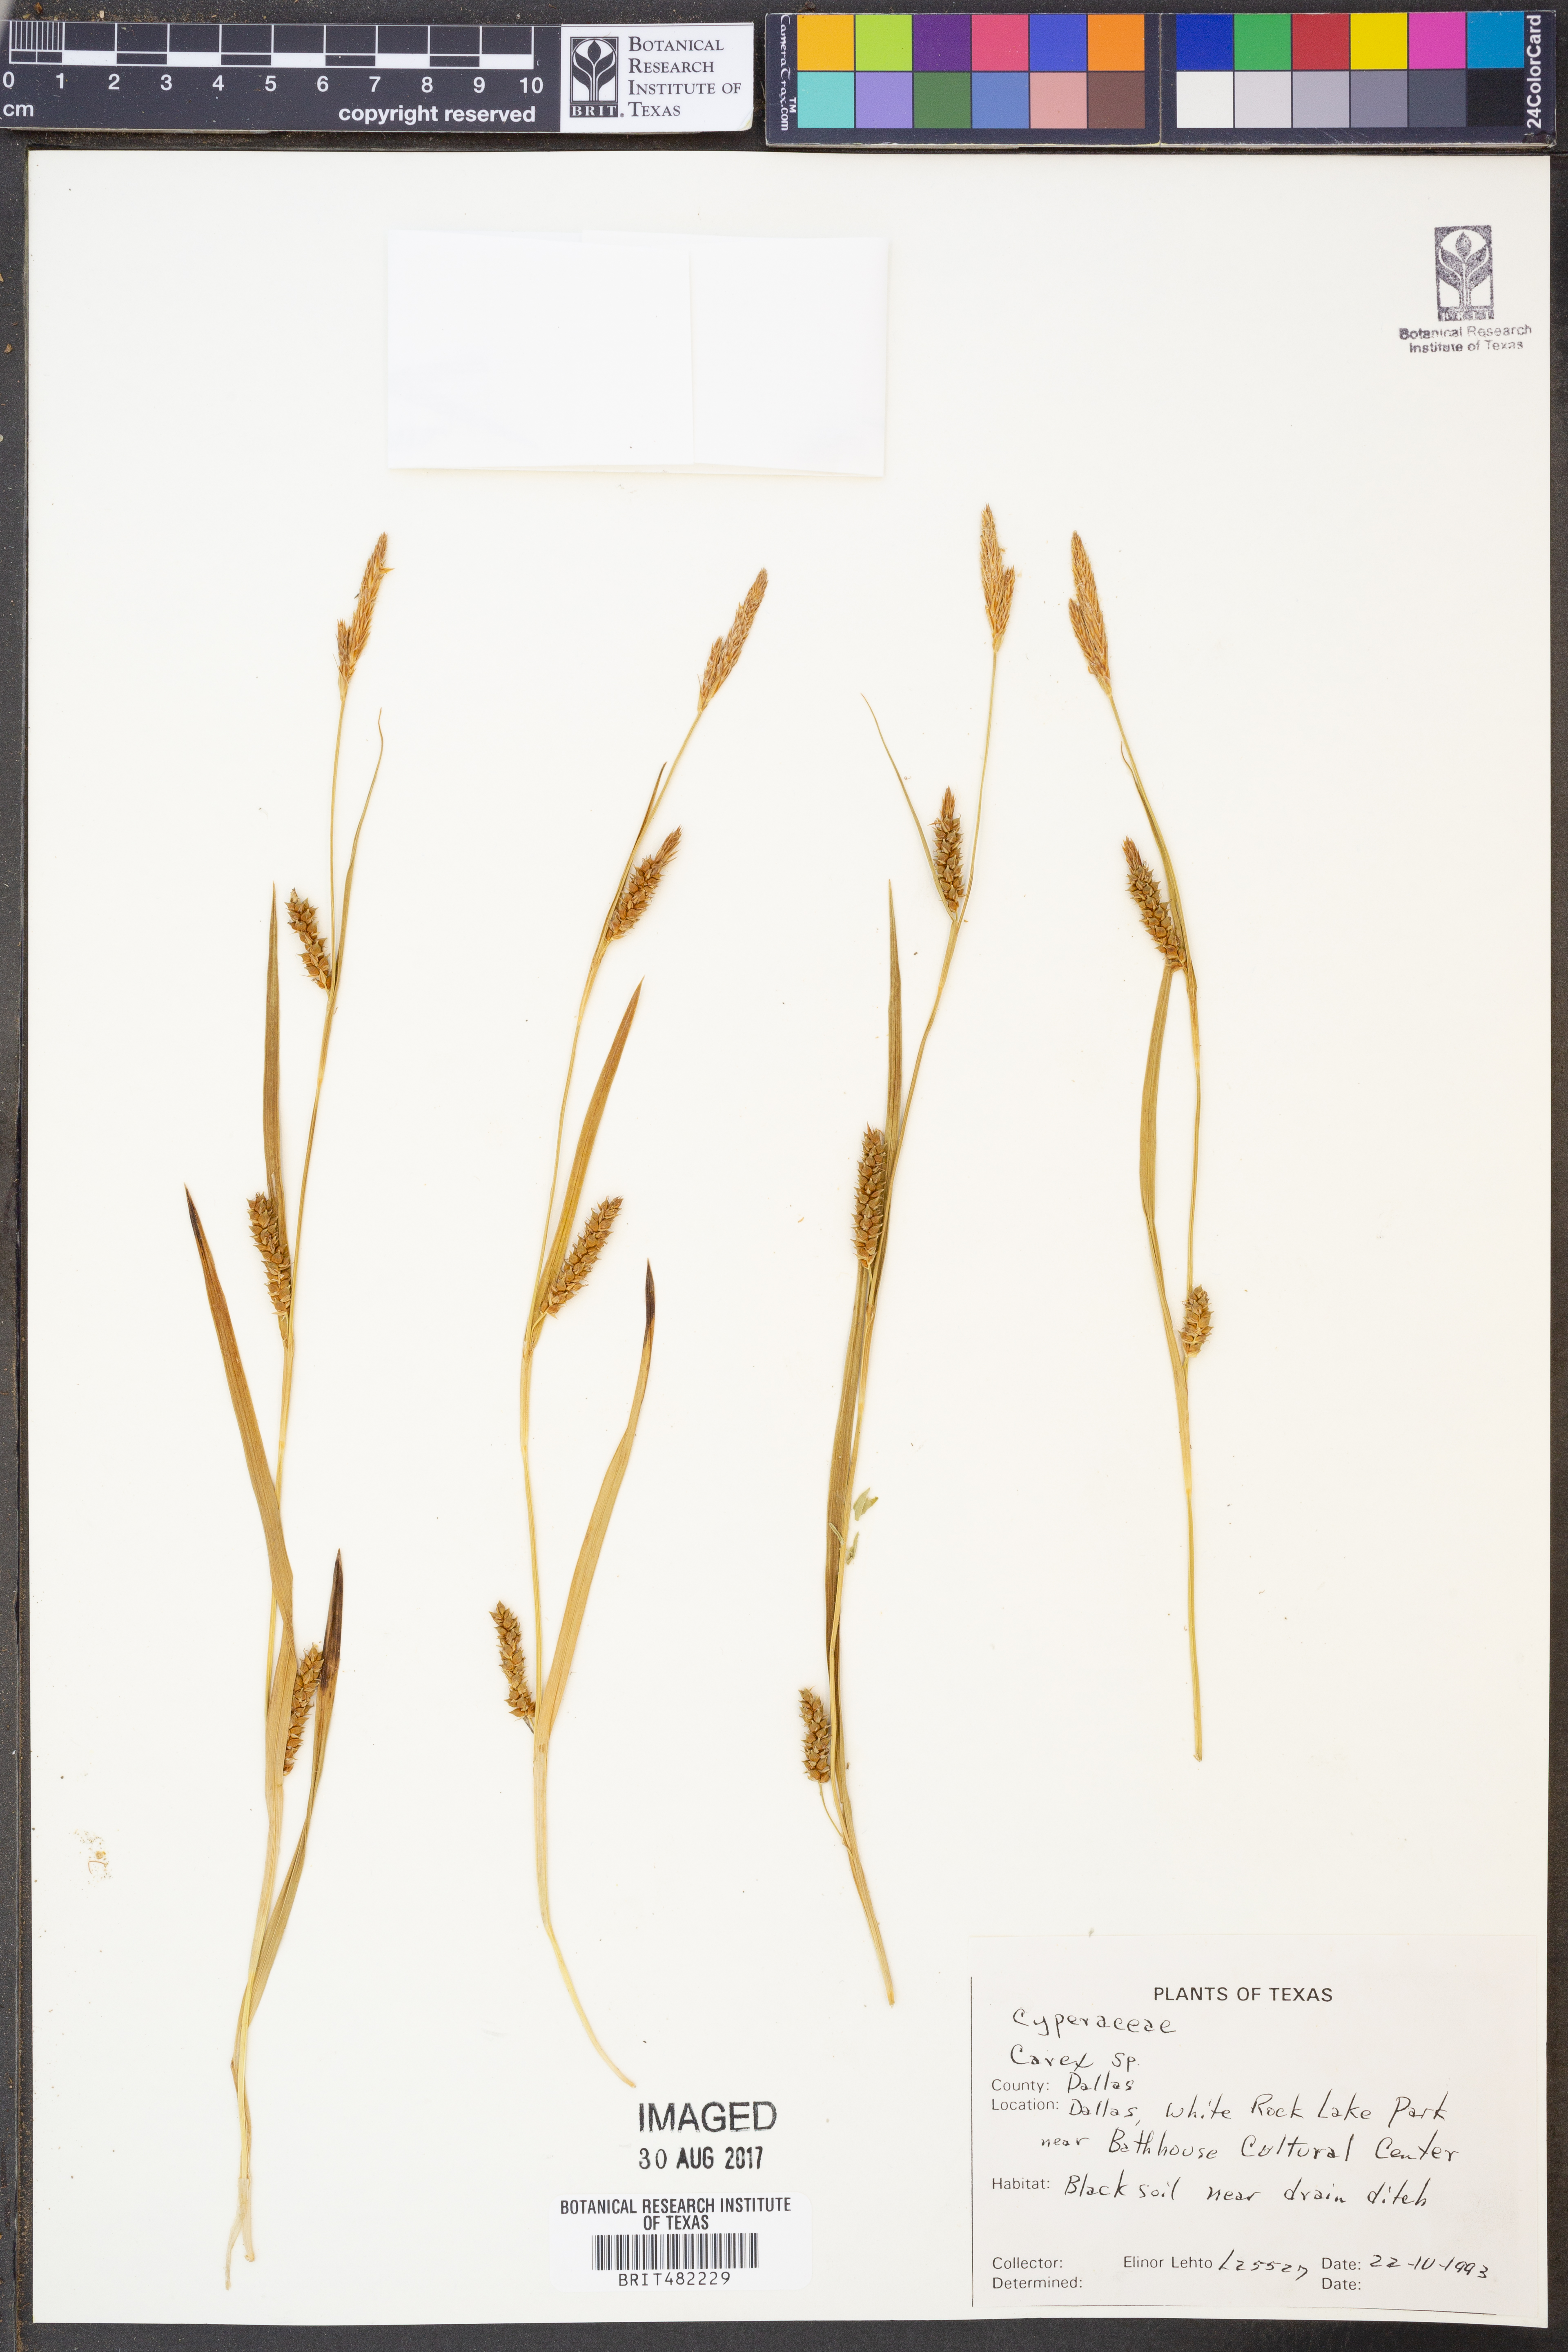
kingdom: Plantae
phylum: Tracheophyta
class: Liliopsida
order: Poales
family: Cyperaceae
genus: Carex
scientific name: Carex
